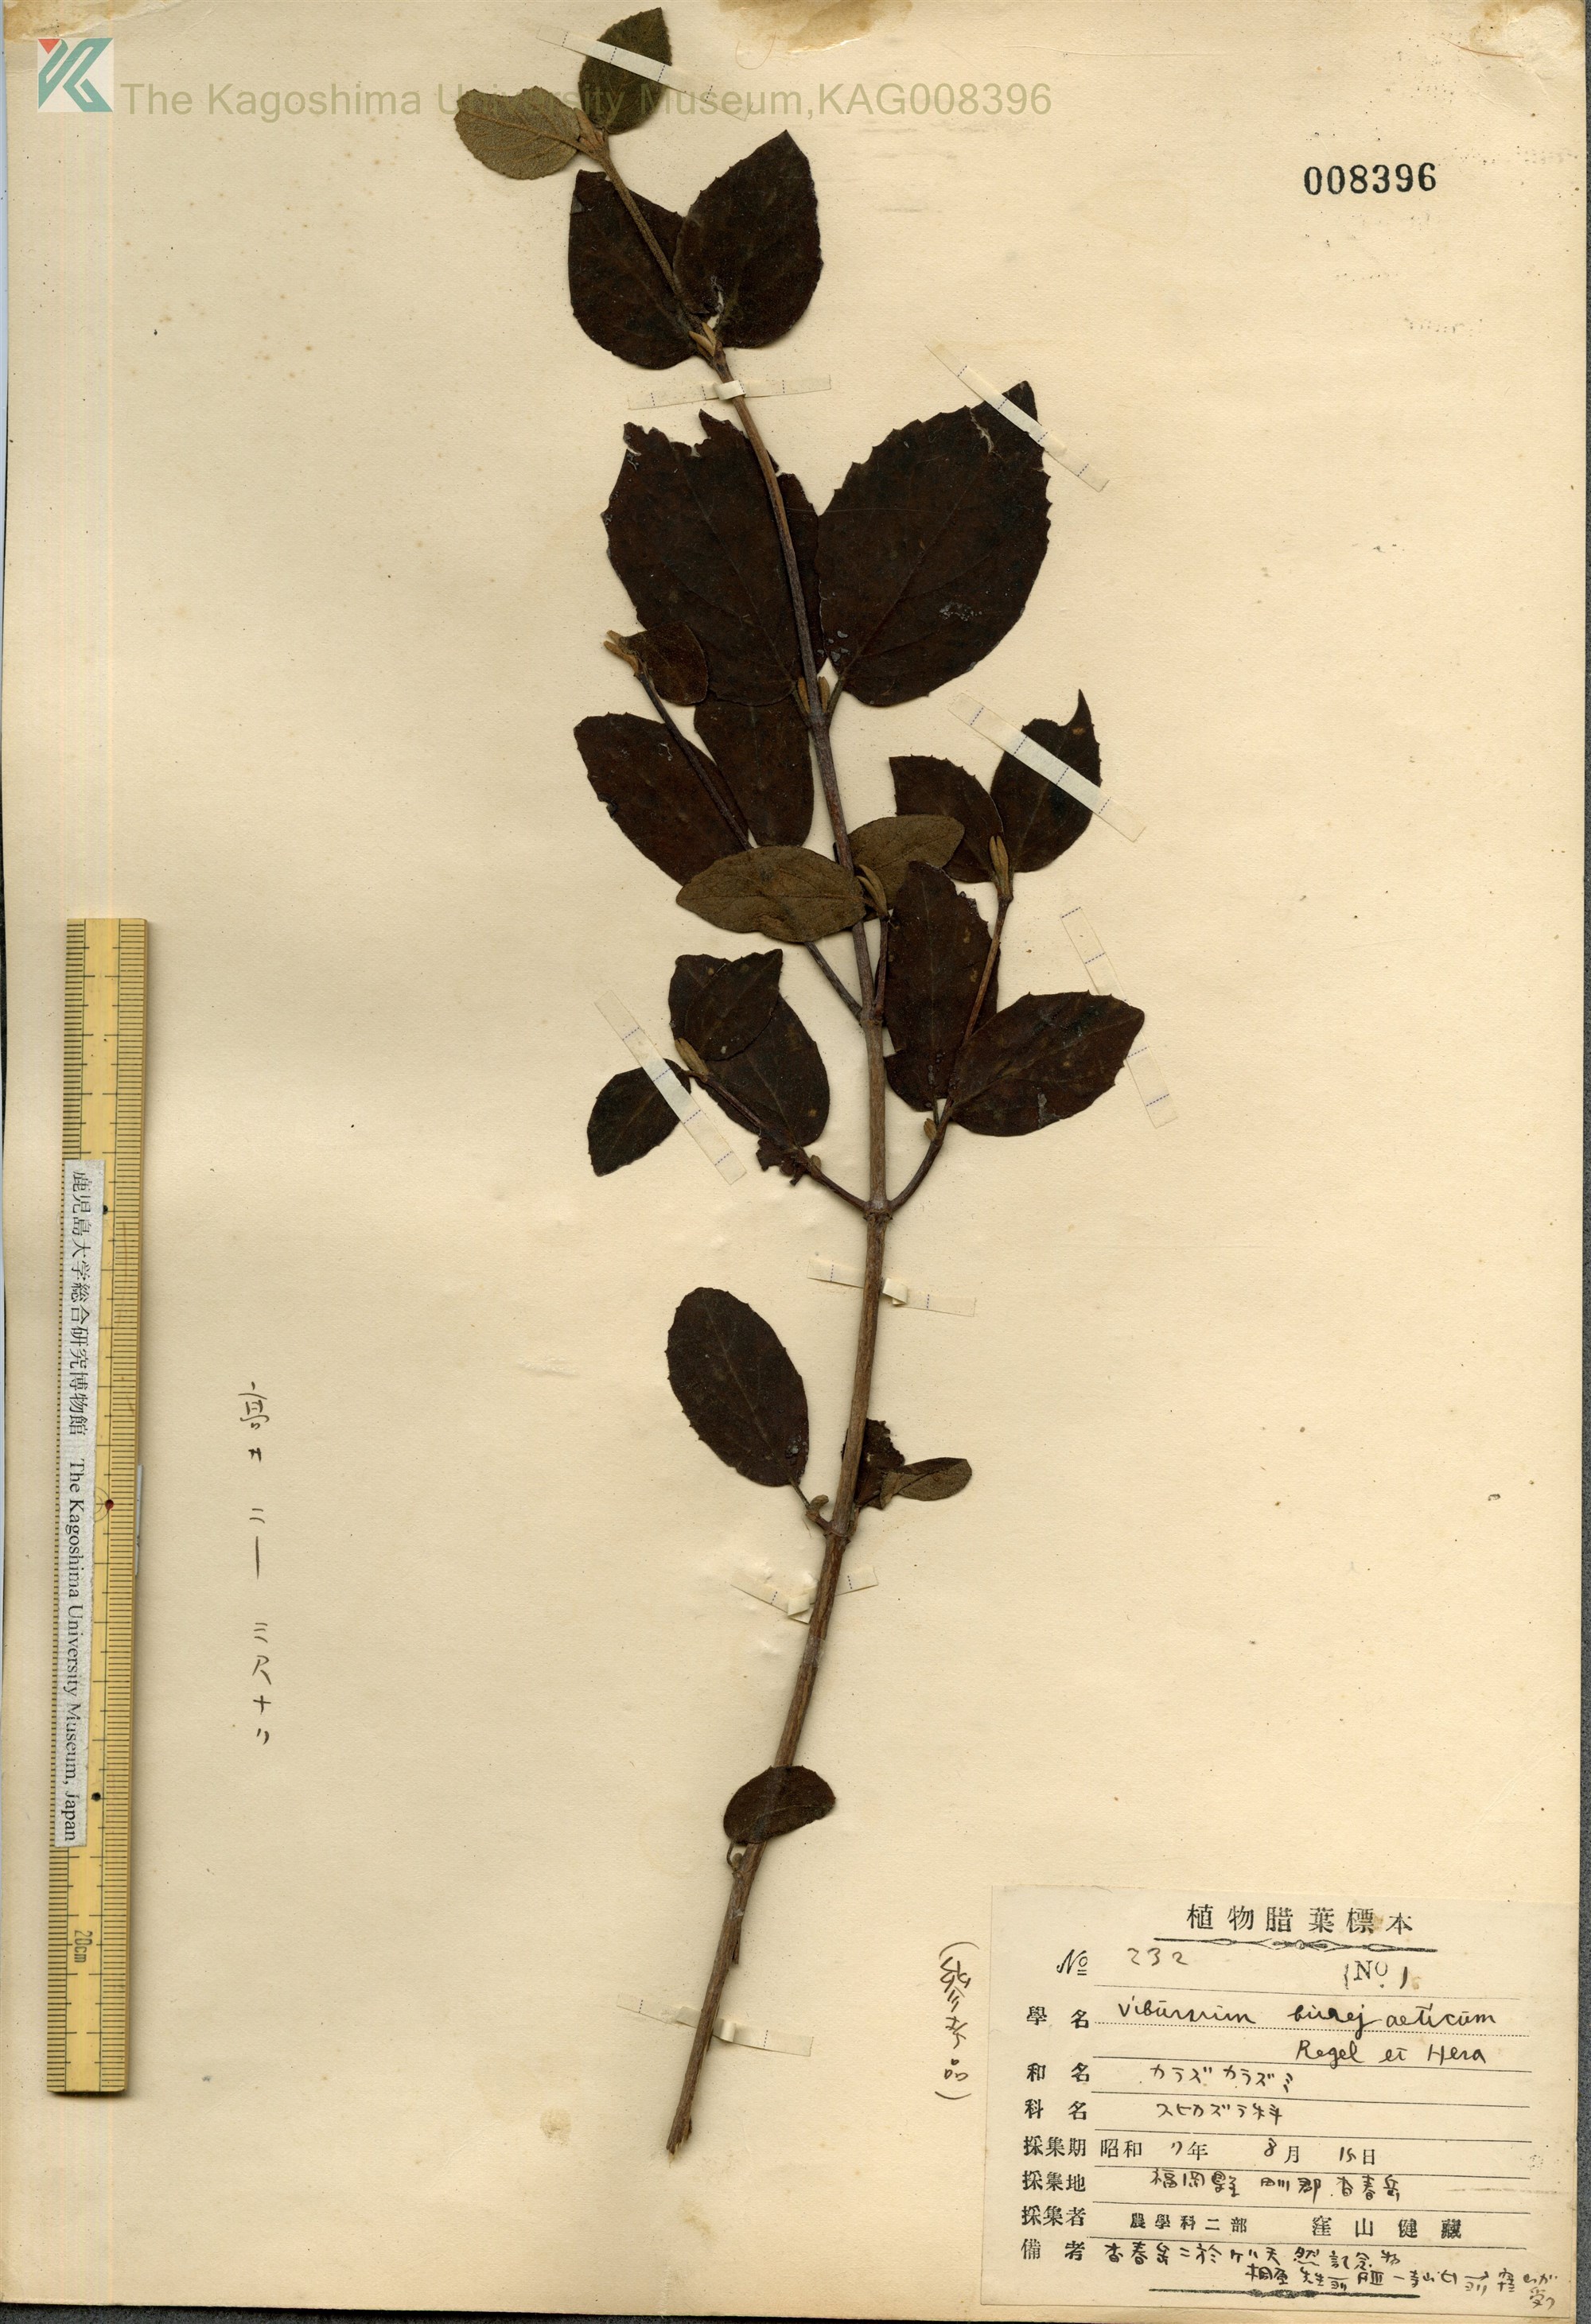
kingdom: Plantae
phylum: Tracheophyta
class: Magnoliopsida
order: Dipsacales
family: Viburnaceae
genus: Viburnum
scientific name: Viburnum carlesii
